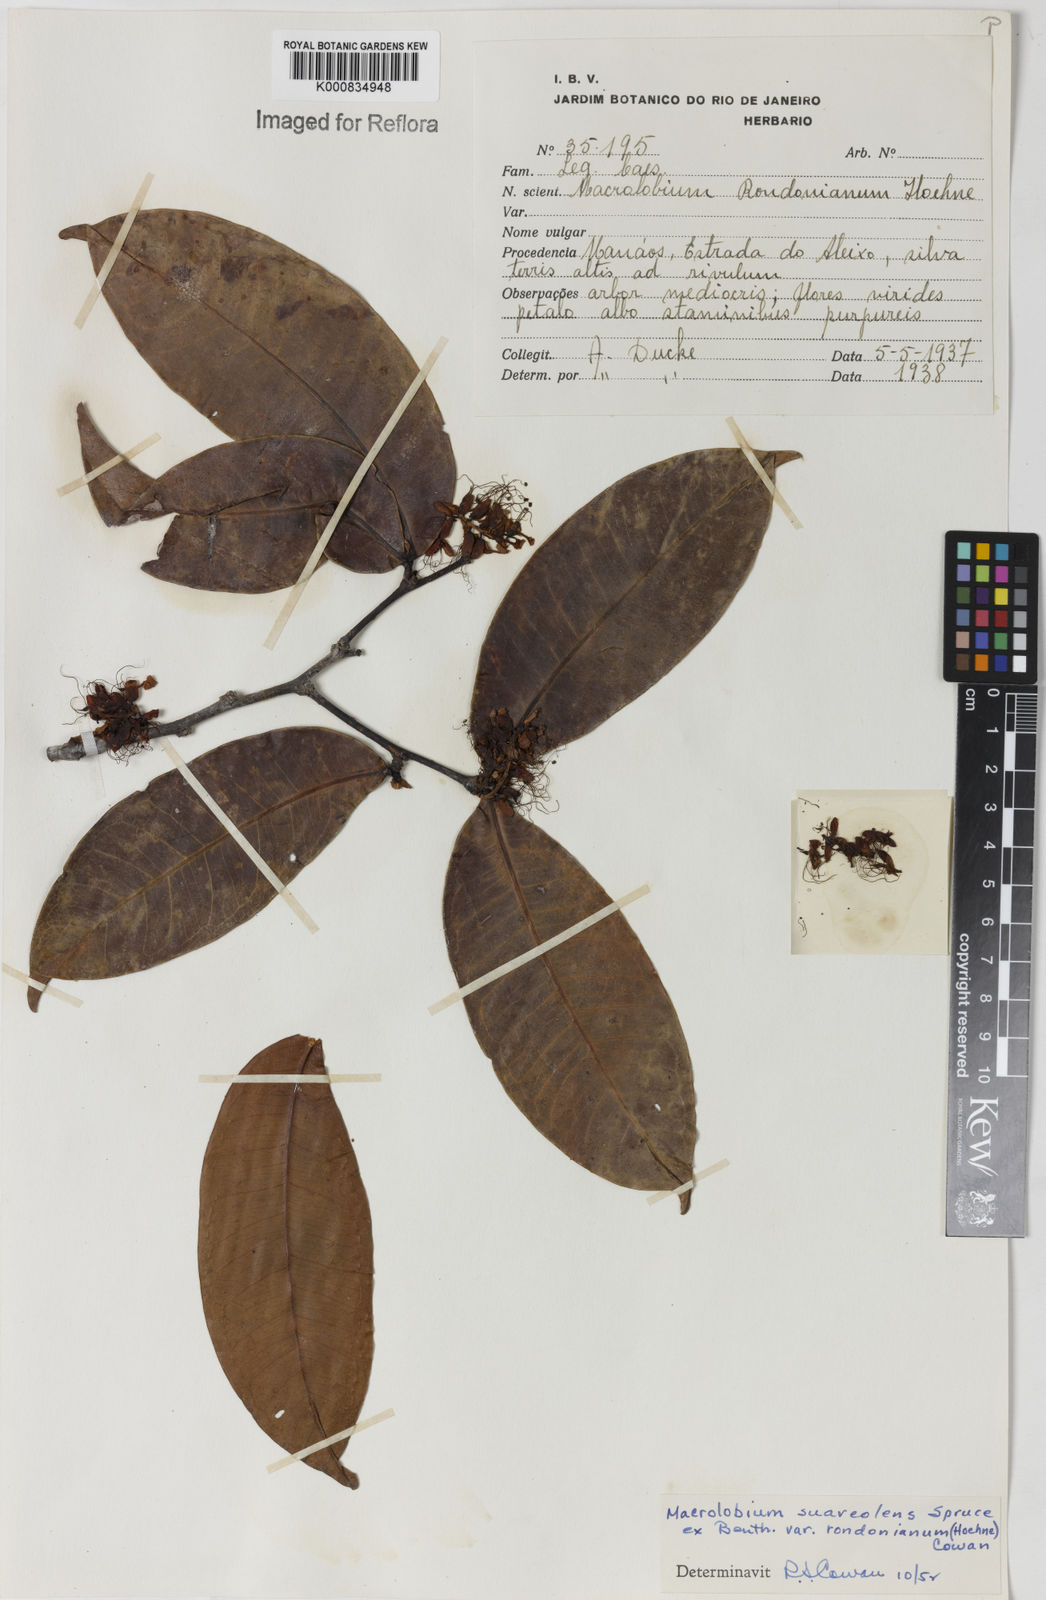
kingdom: Plantae
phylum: Tracheophyta
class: Magnoliopsida
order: Fabales
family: Fabaceae
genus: Macrolobium
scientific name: Macrolobium suaveolens
